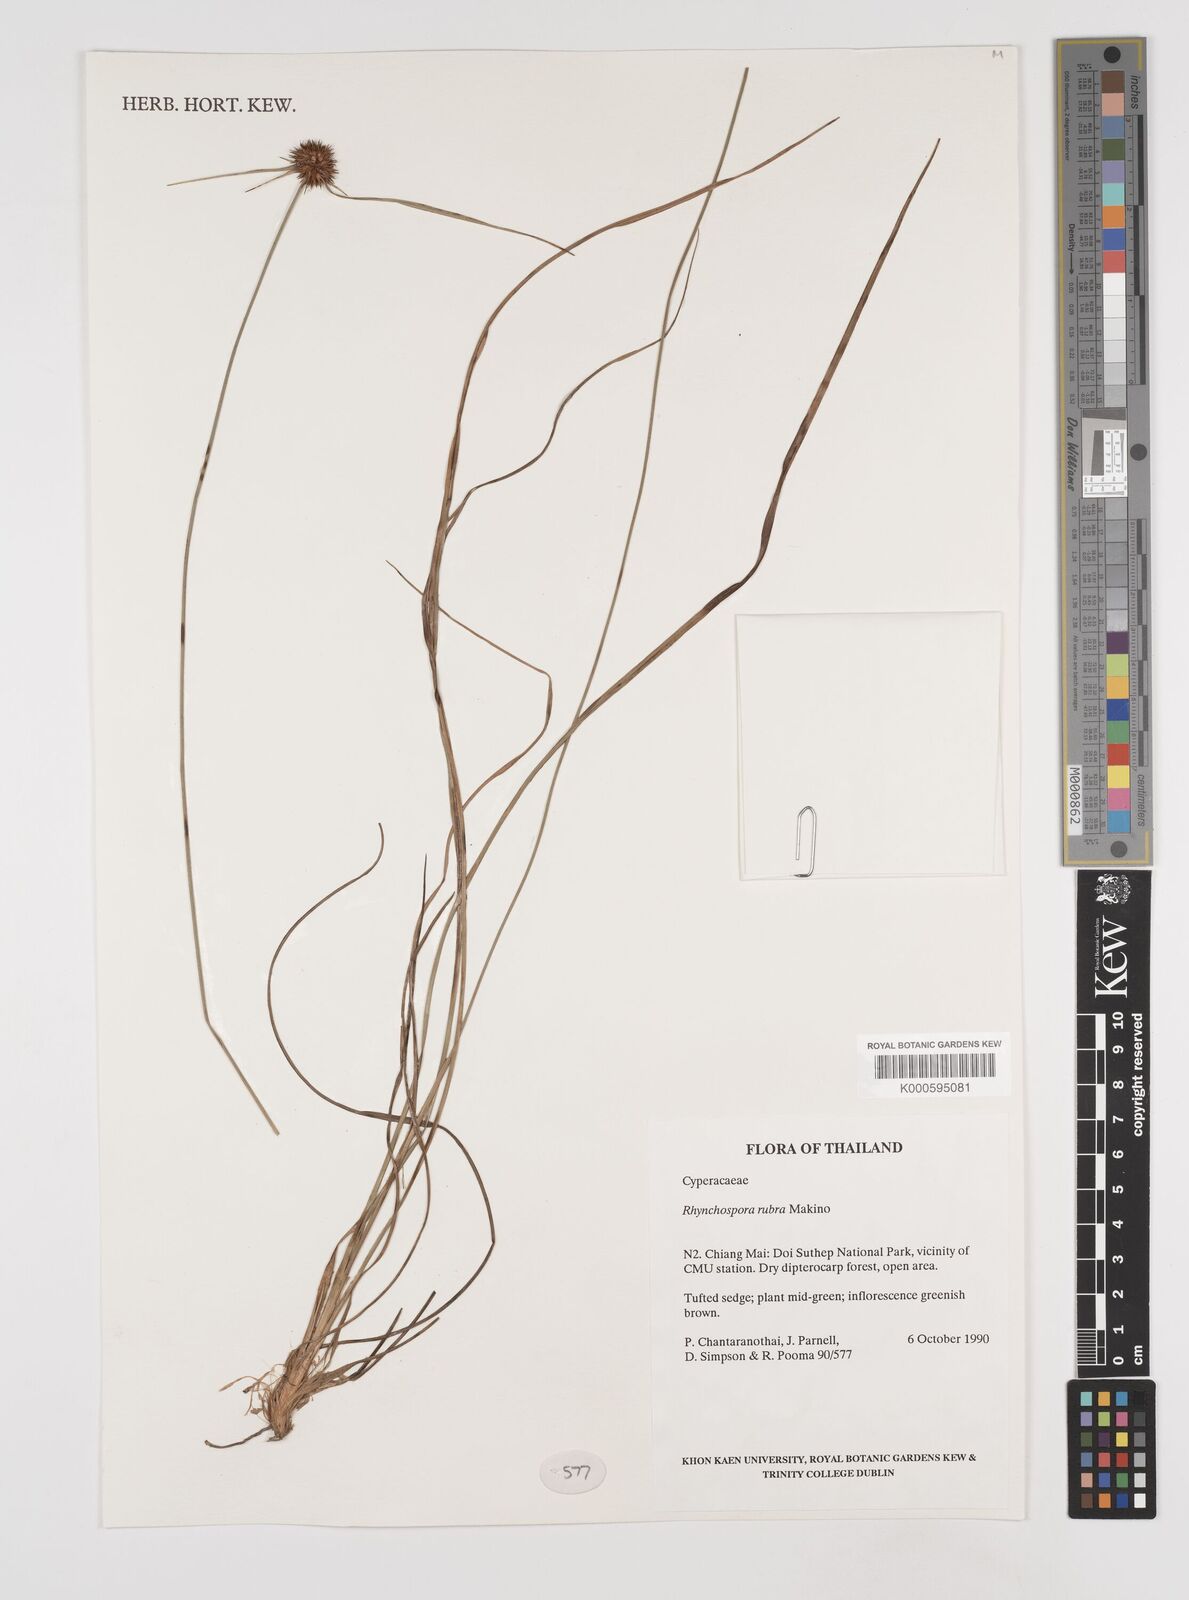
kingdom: Plantae
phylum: Tracheophyta
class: Liliopsida
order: Poales
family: Cyperaceae
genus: Rhynchospora
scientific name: Rhynchospora rubra
